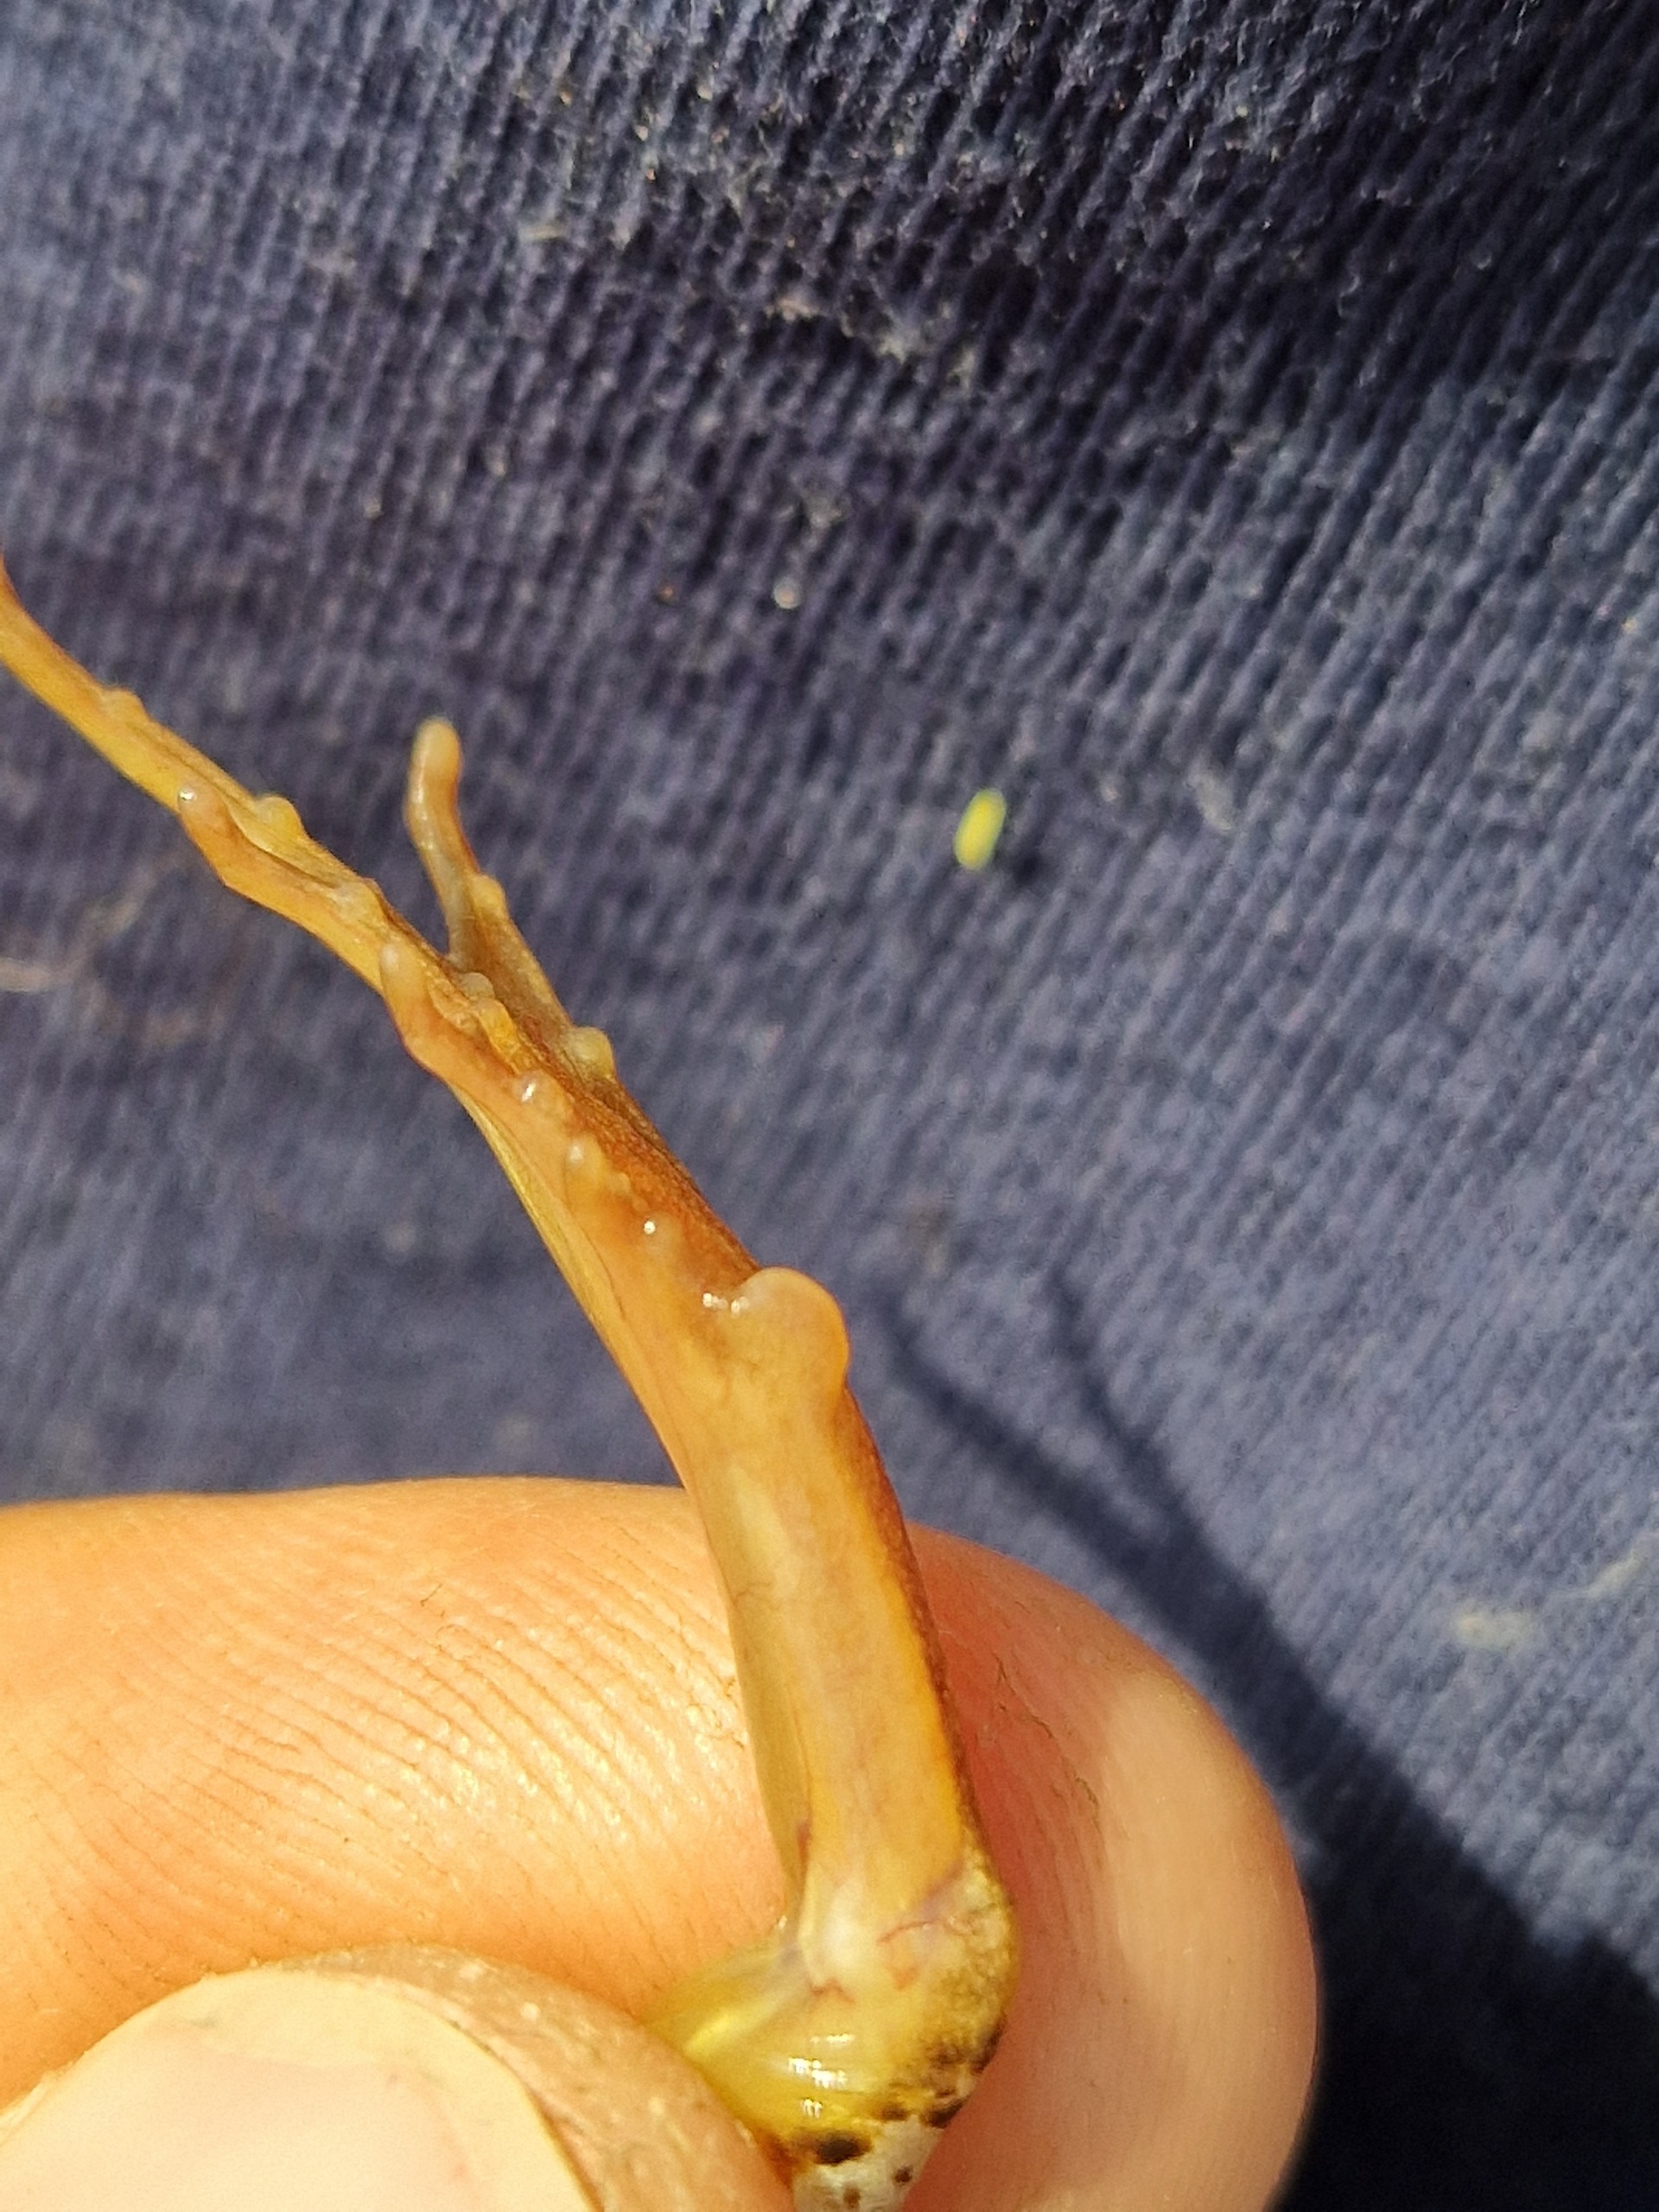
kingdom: Animalia
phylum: Chordata
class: Amphibia
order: Anura
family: Ranidae
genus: Rana
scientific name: Rana arvalis
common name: Spidssnudet frø
